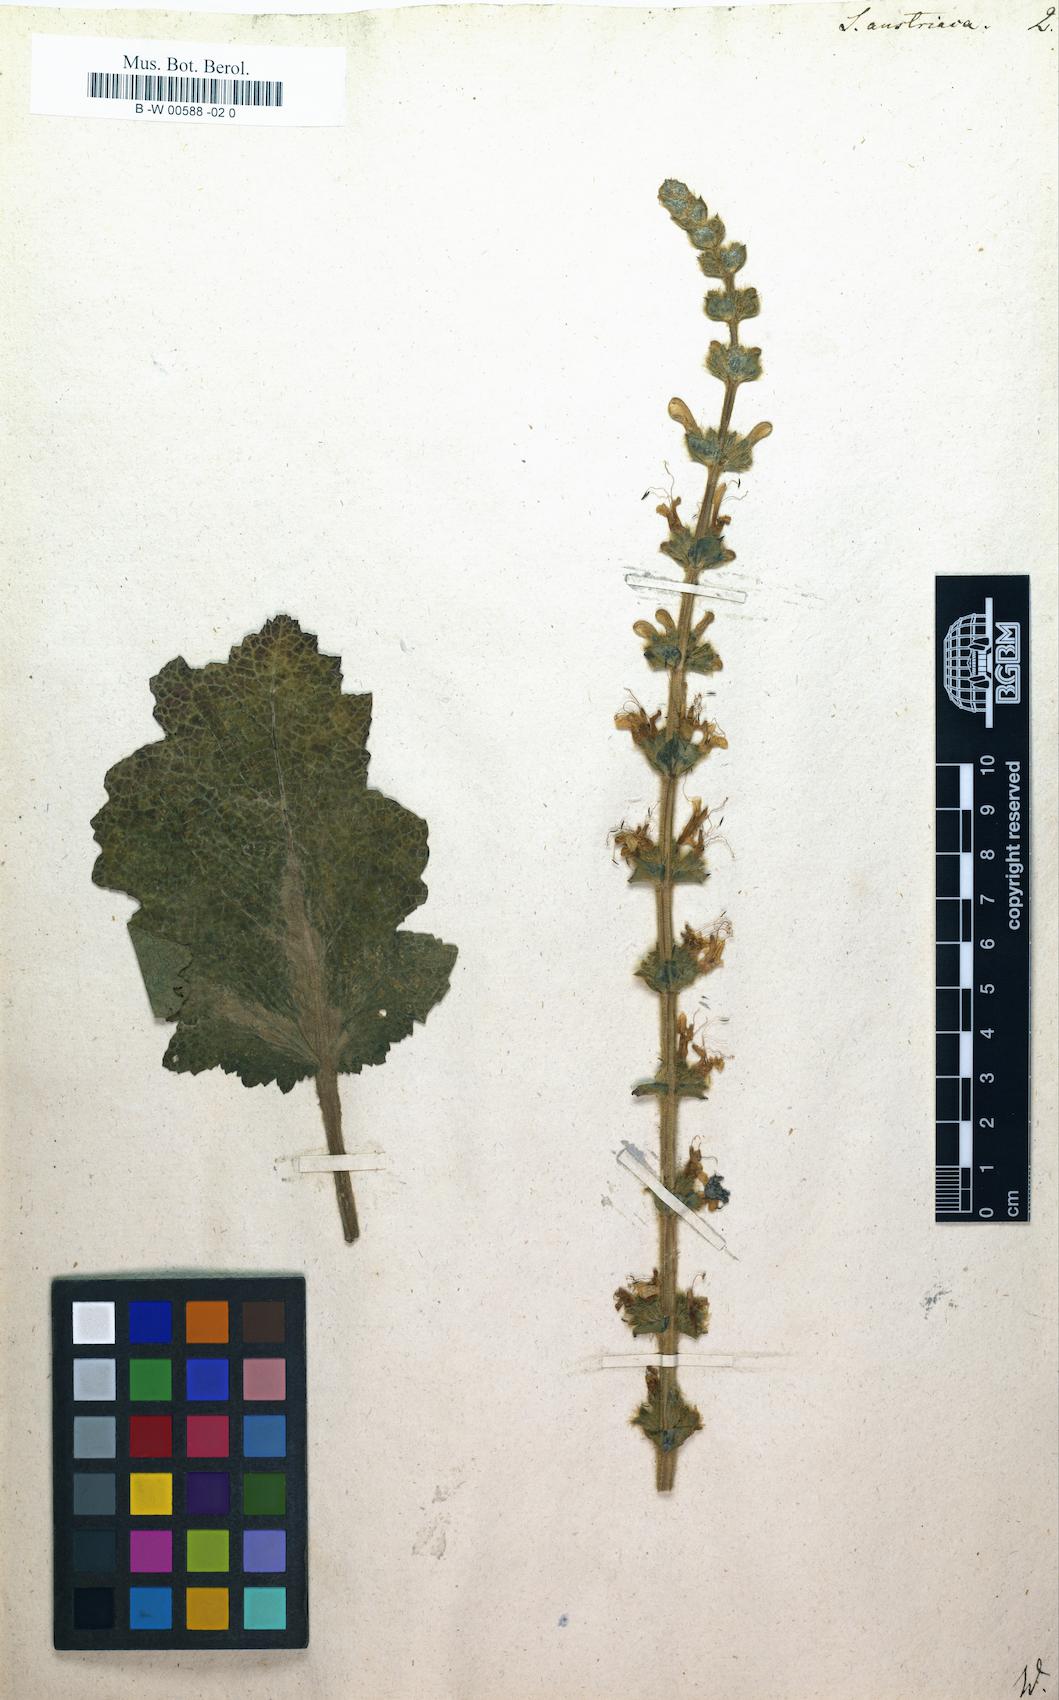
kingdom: Plantae
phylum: Tracheophyta
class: Magnoliopsida
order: Lamiales
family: Lamiaceae
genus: Salvia
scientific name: Salvia austriaca
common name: Austrian sage
